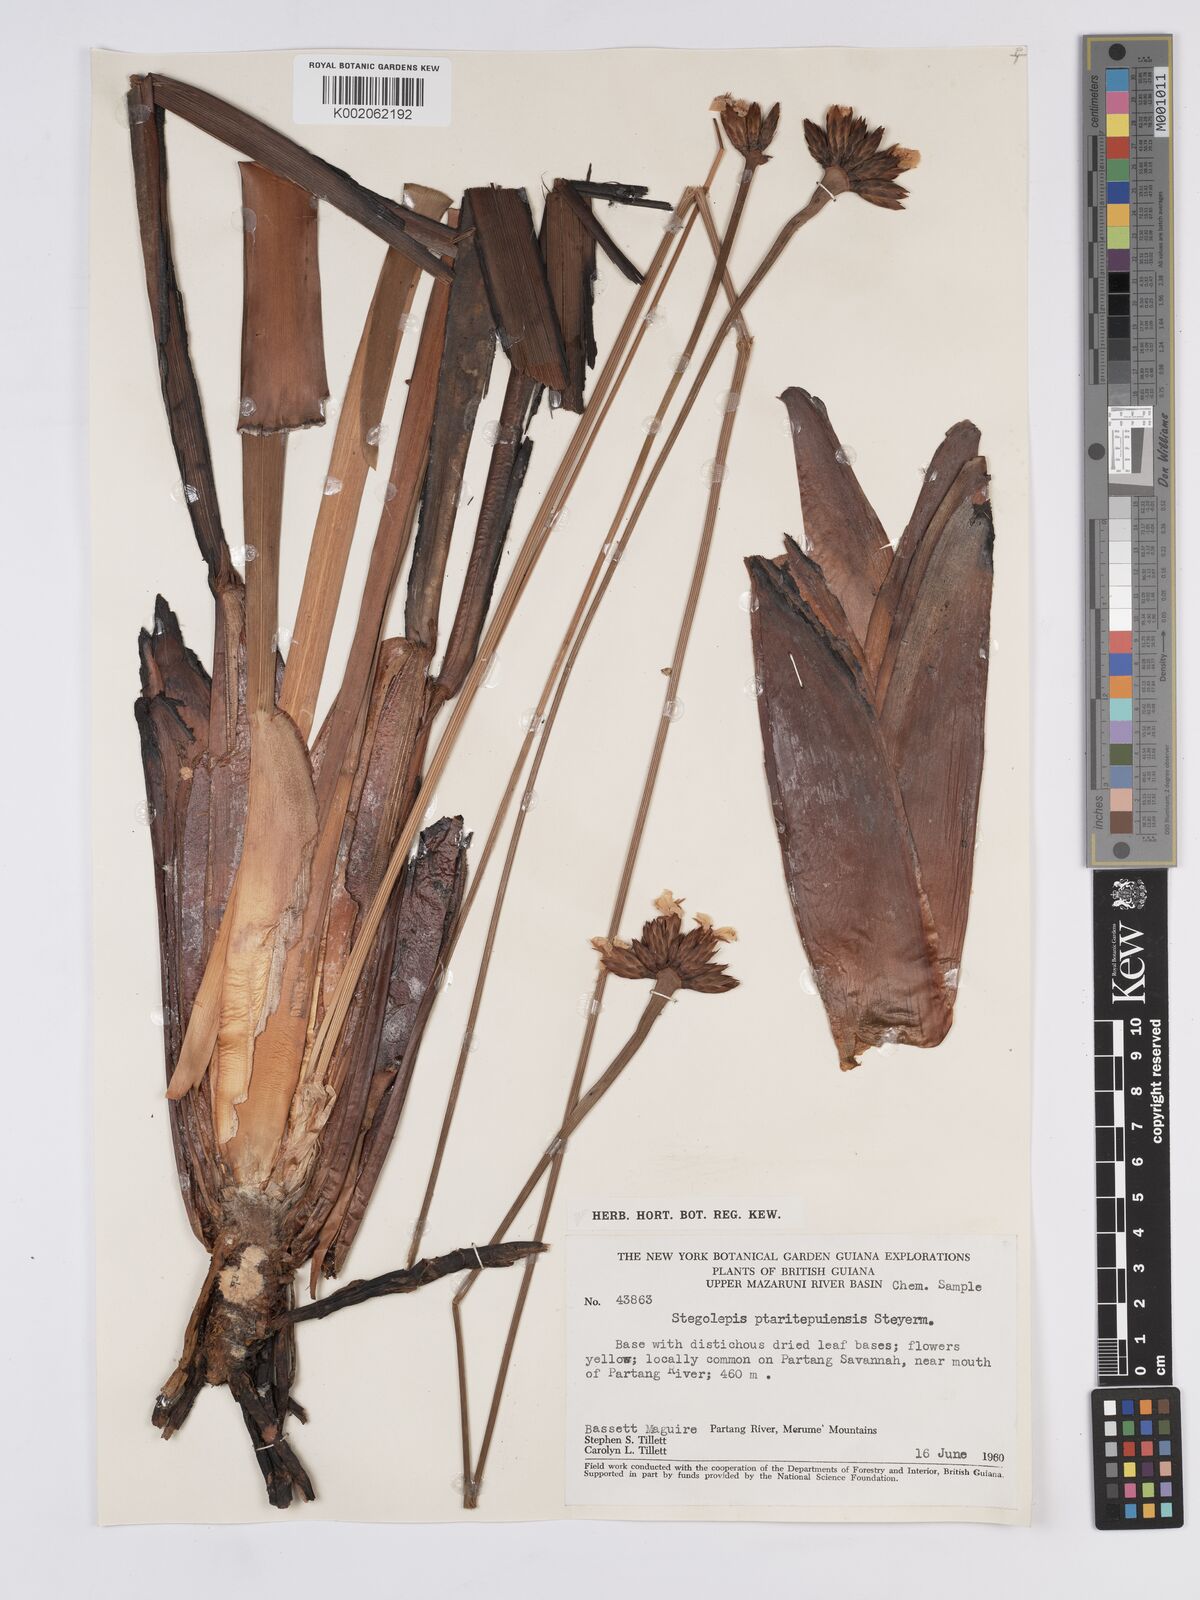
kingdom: Plantae
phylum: Tracheophyta
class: Liliopsida
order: Poales
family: Rapateaceae
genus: Stegolepis
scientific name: Stegolepis ptaritepuiensis
